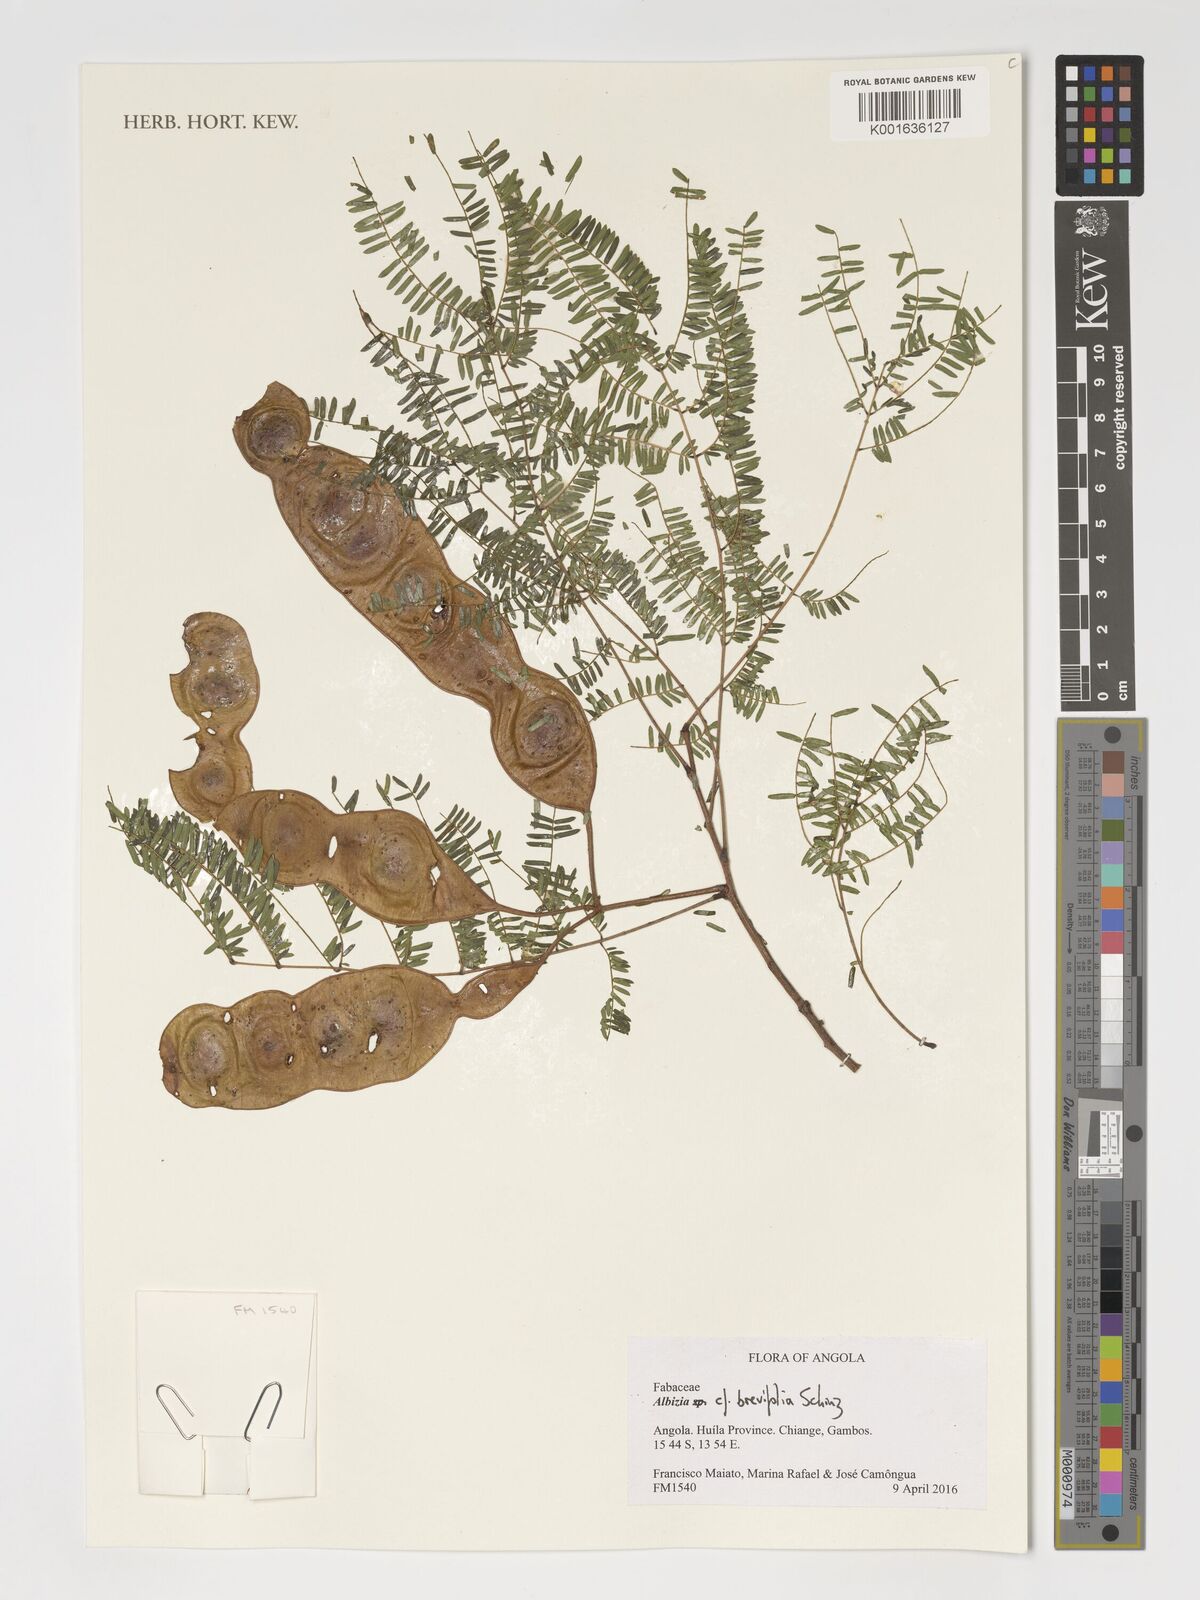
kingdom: Plantae
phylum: Tracheophyta
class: Magnoliopsida
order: Fabales
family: Fabaceae
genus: Albizia
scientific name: Albizia brevifolia
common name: Rock false-thorn
